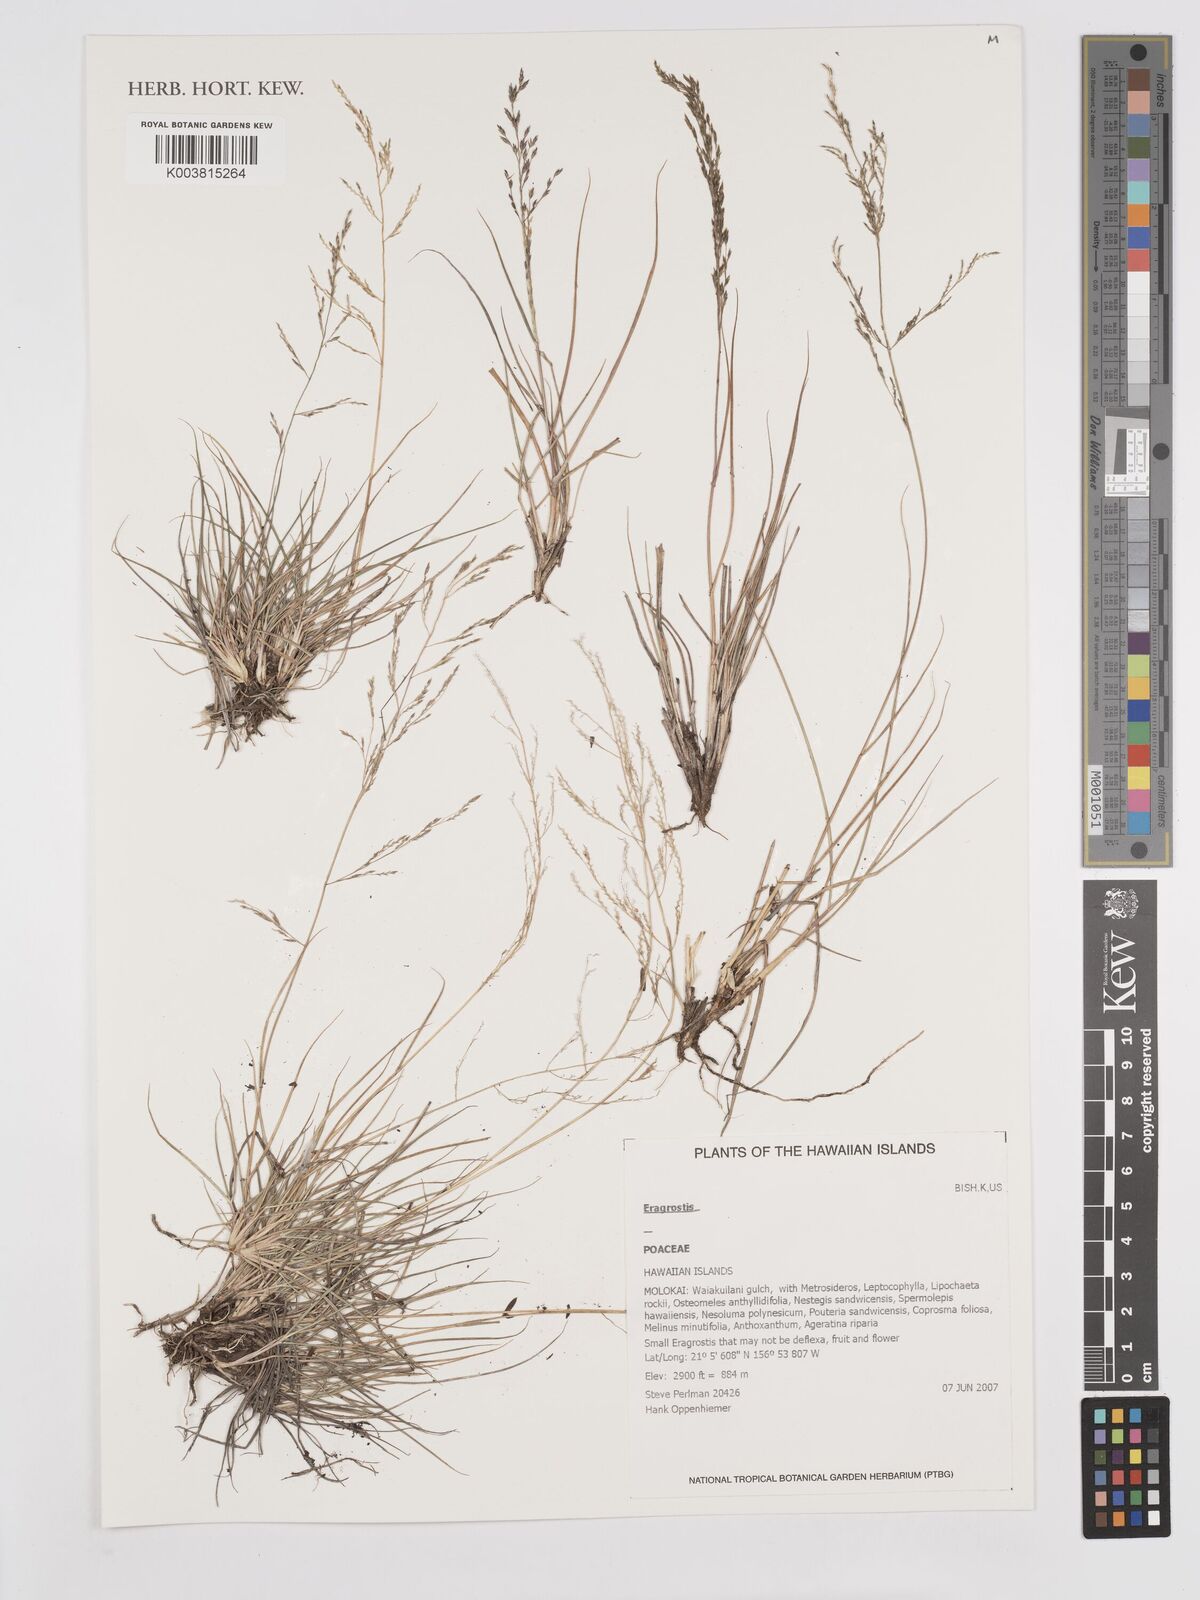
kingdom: Plantae
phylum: Tracheophyta
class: Liliopsida
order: Poales
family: Poaceae
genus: Eragrostis
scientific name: Eragrostis
